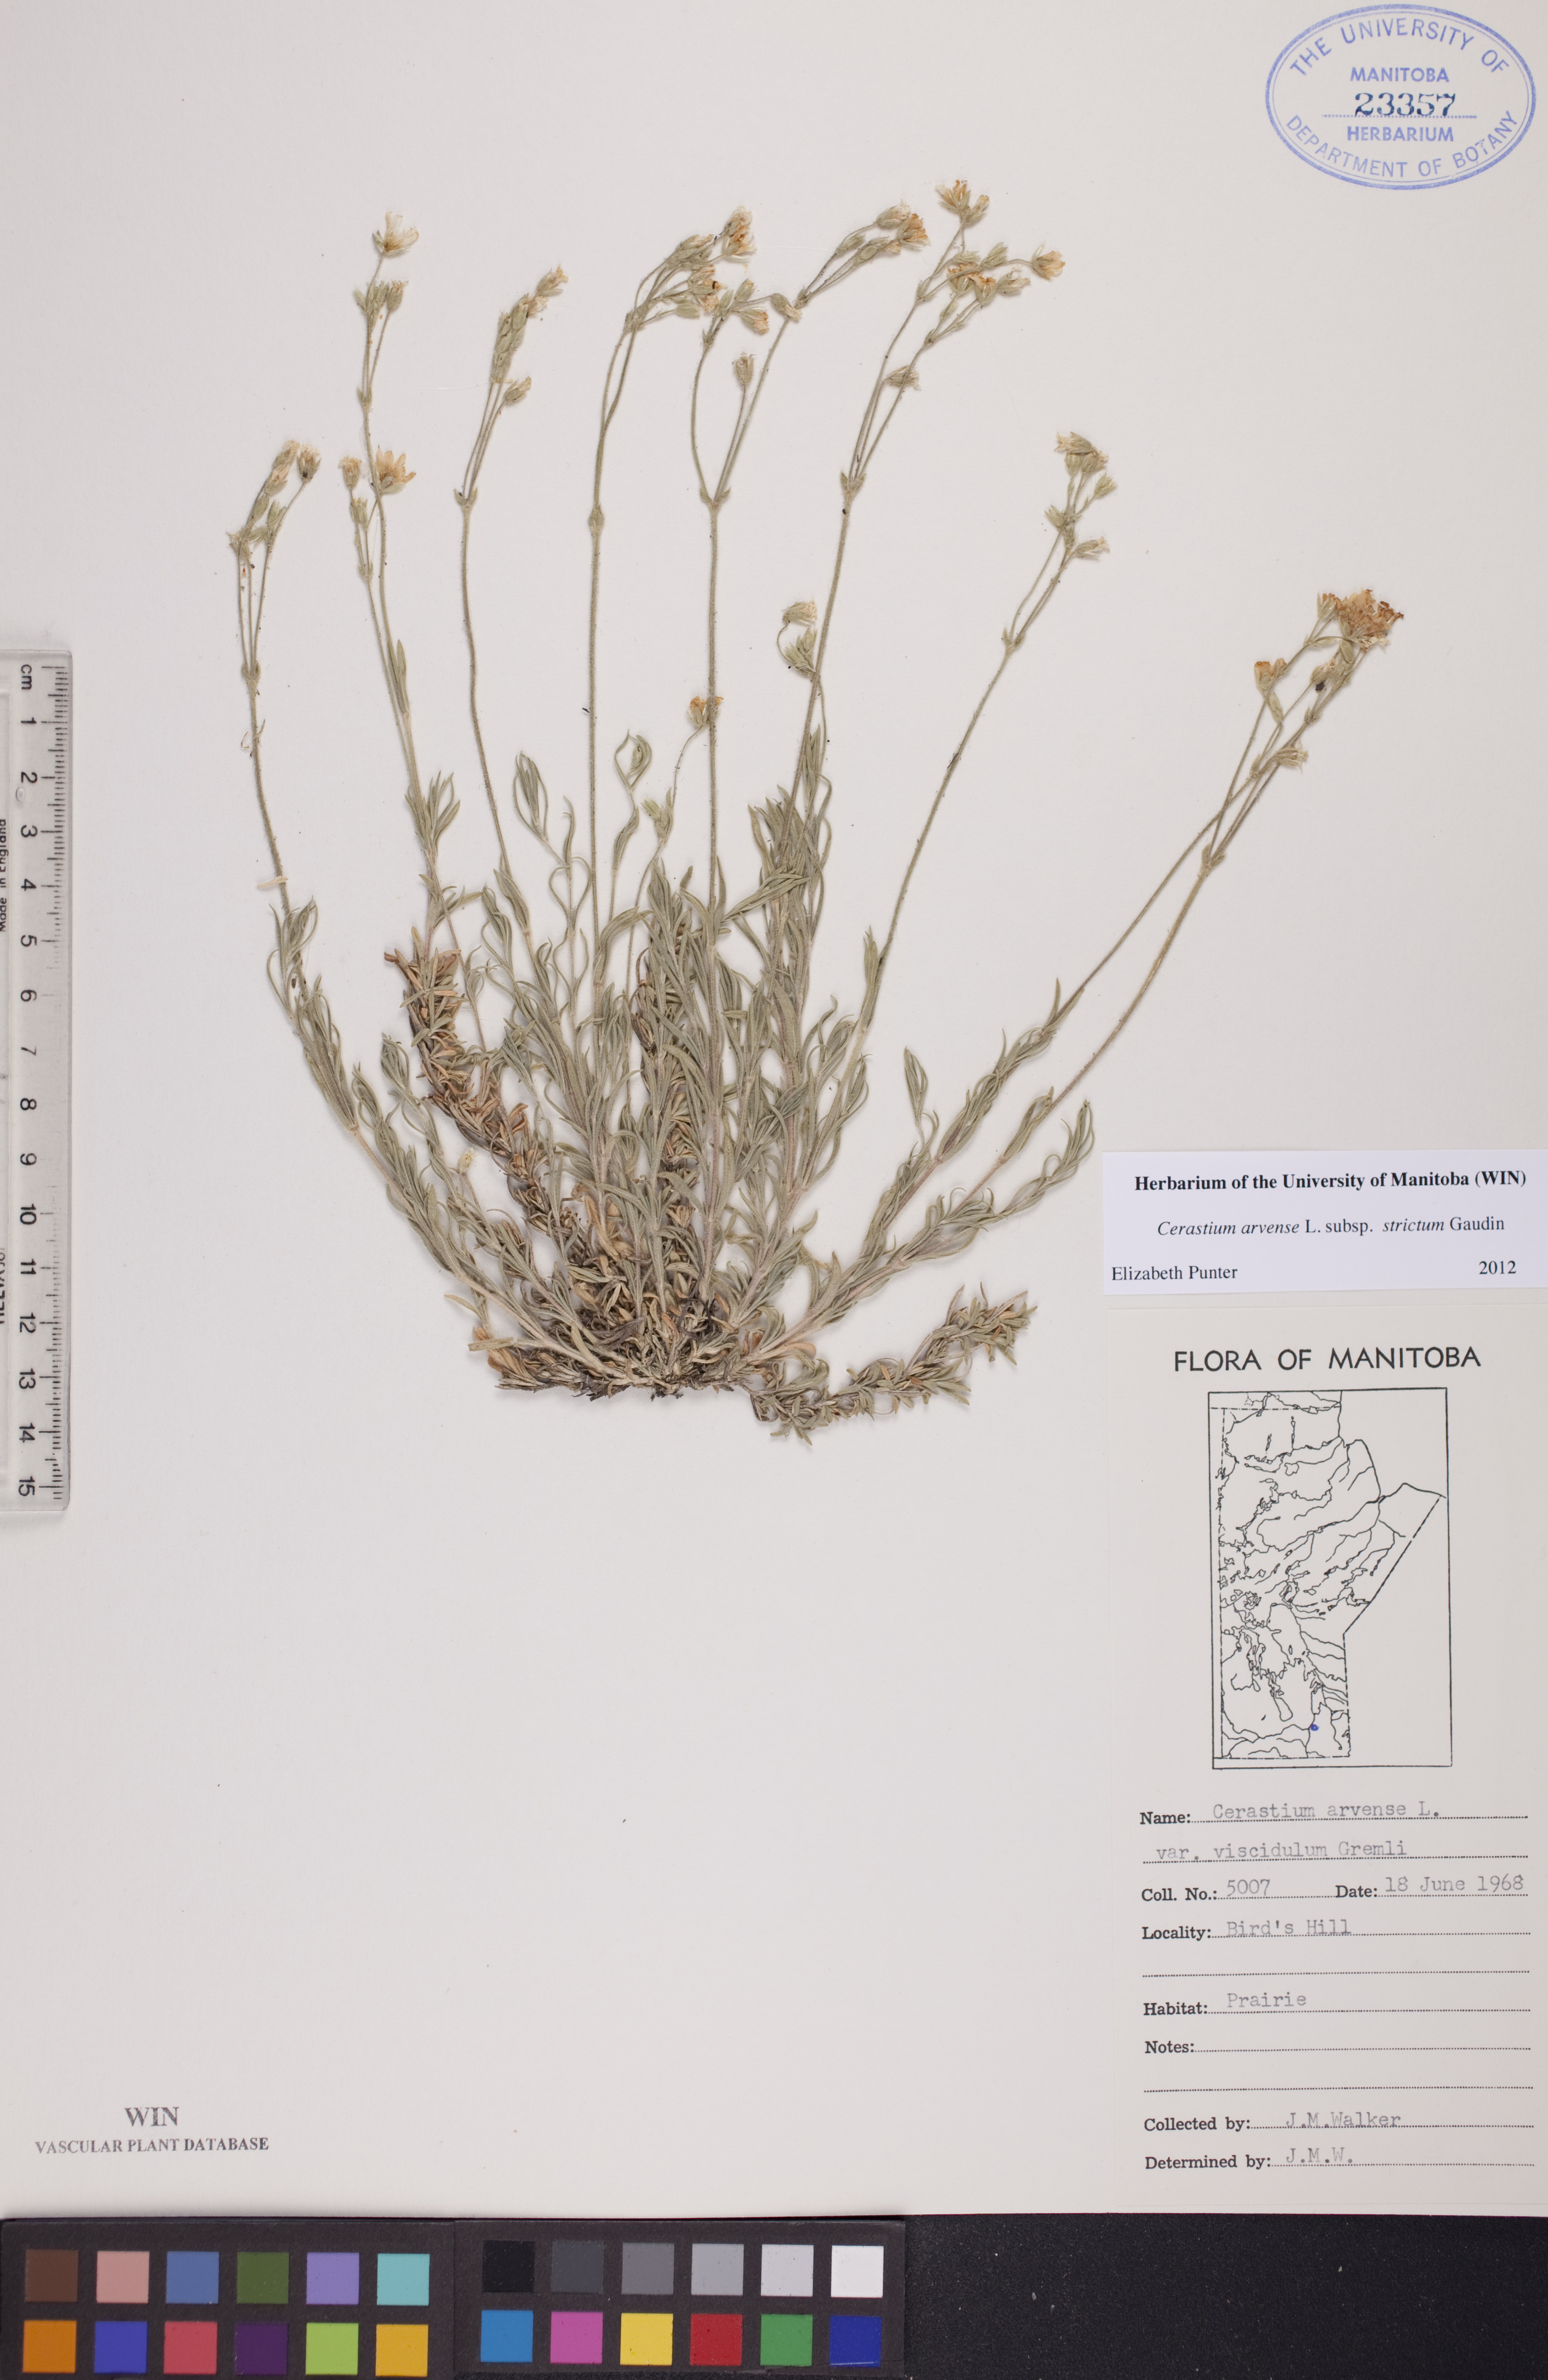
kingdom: Plantae
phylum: Tracheophyta
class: Magnoliopsida
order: Caryophyllales
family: Caryophyllaceae
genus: Cerastium
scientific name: Cerastium elongatum
